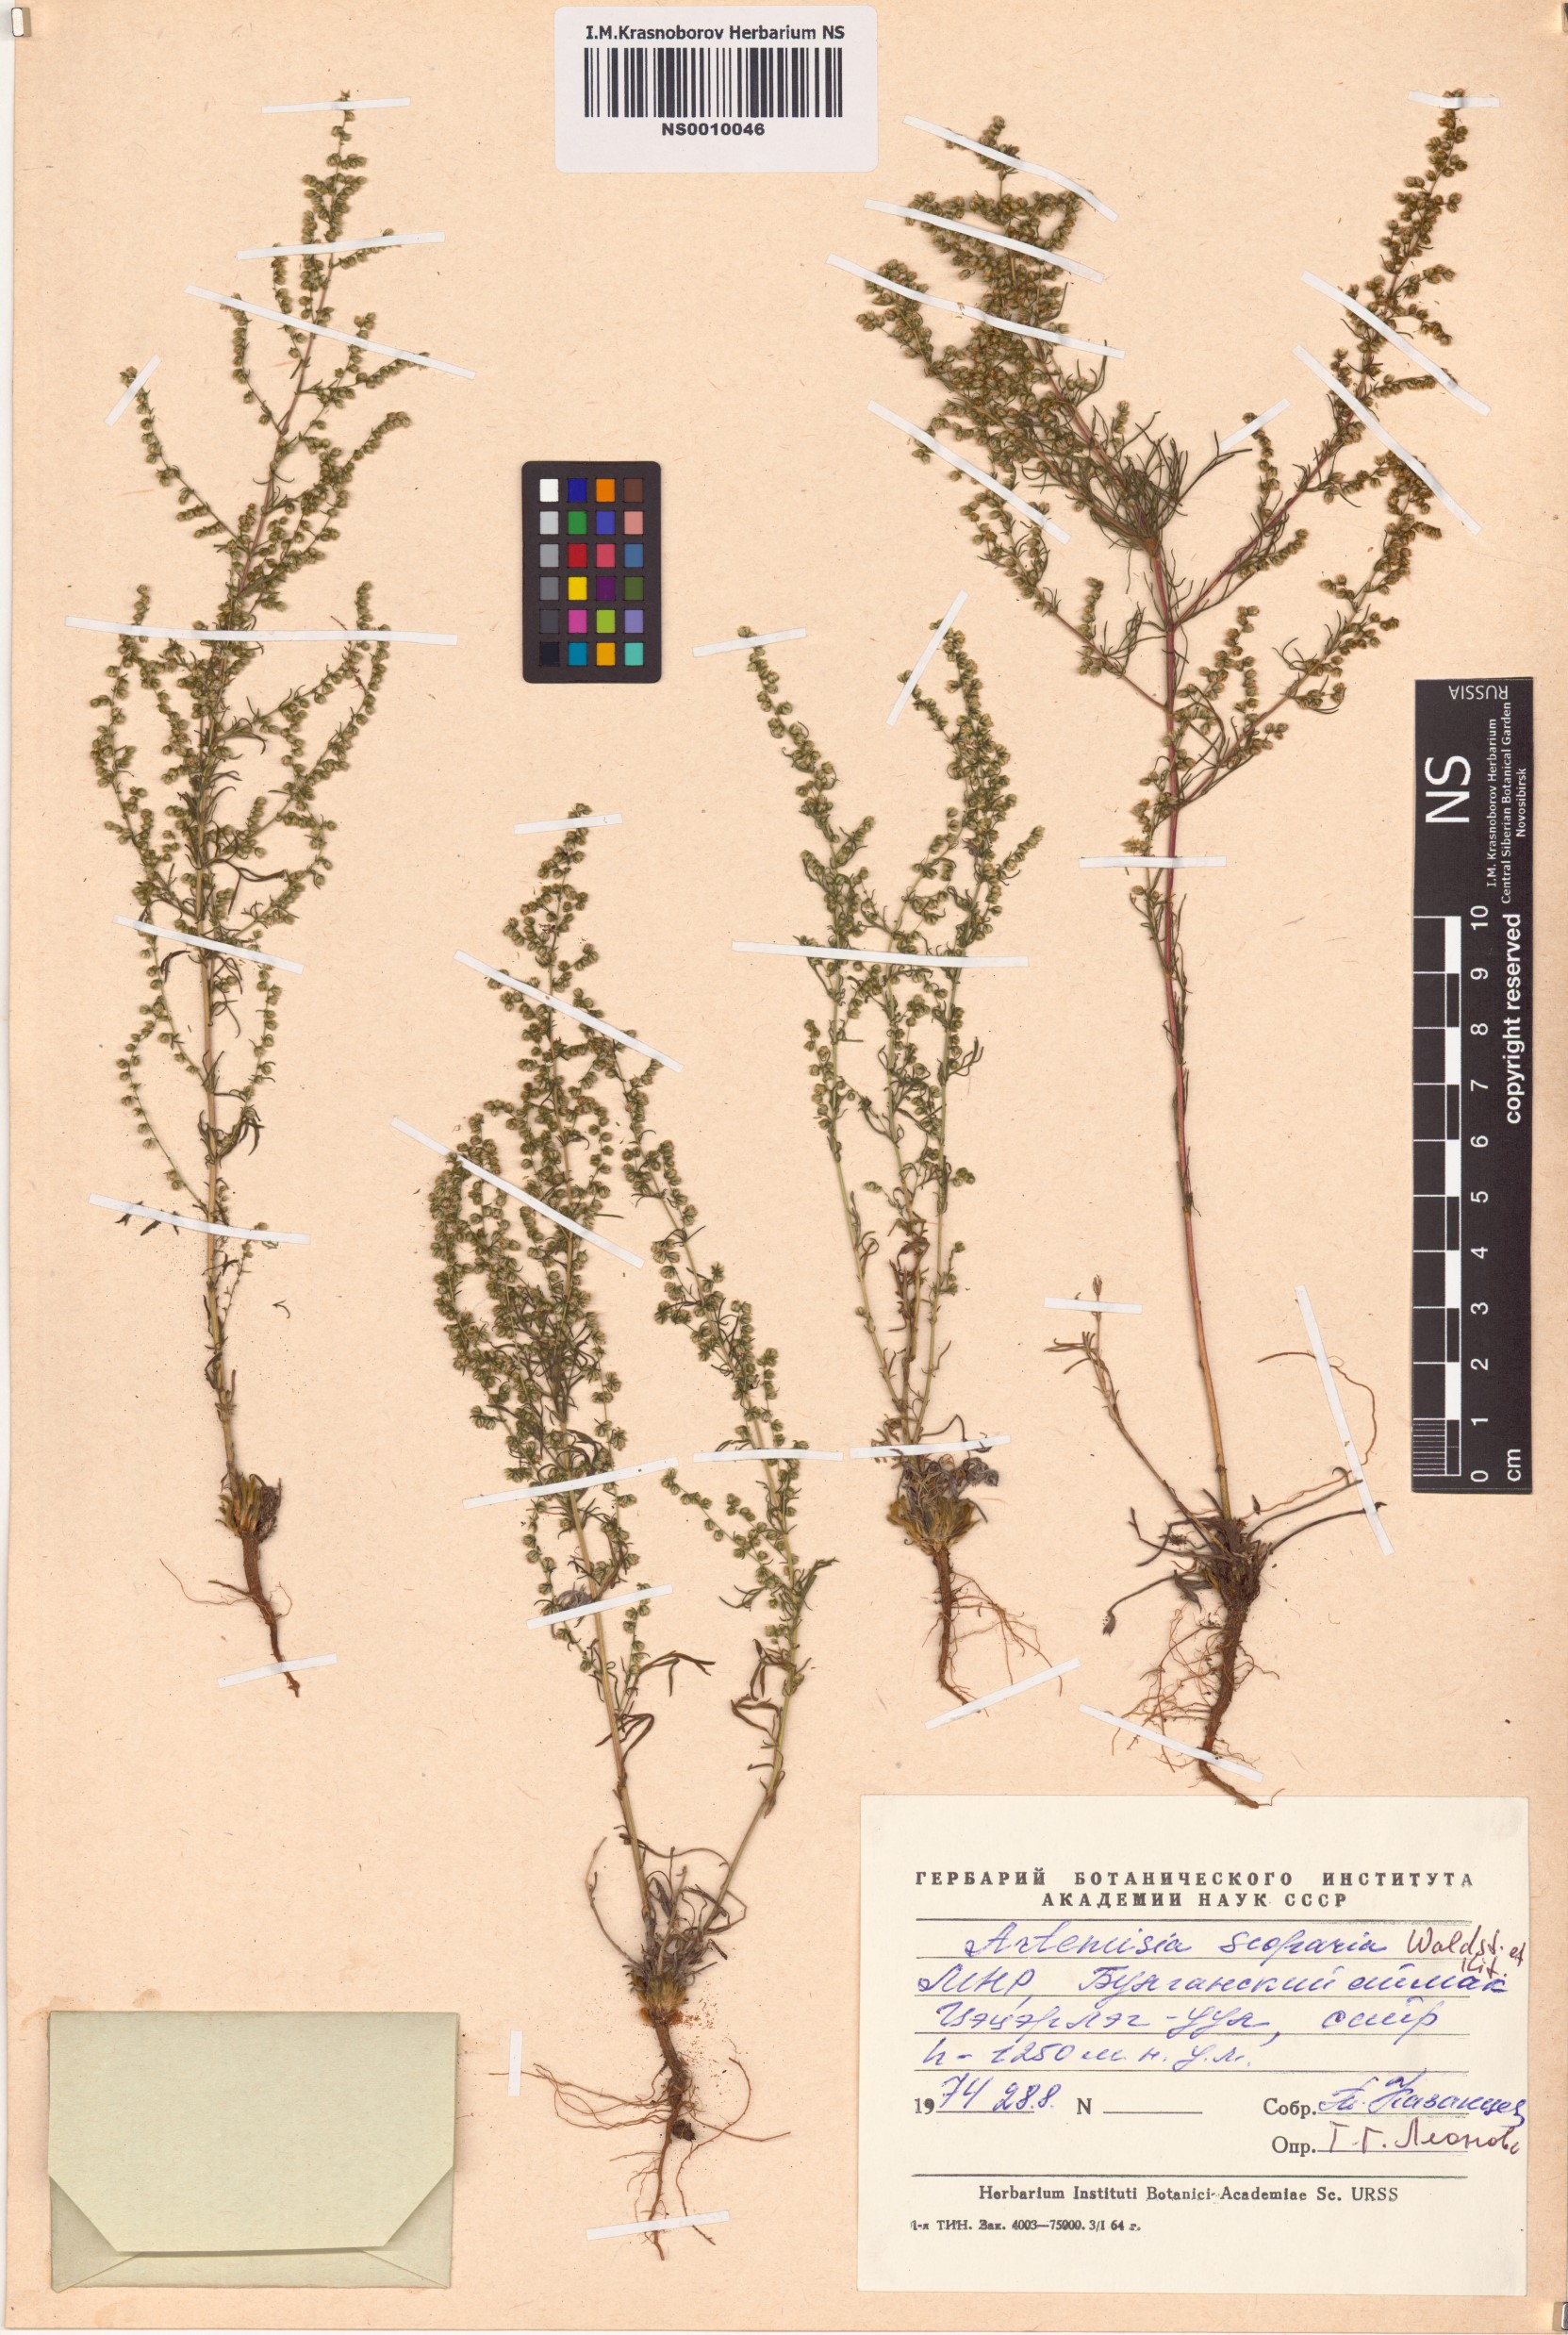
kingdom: Plantae
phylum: Tracheophyta
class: Magnoliopsida
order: Asterales
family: Asteraceae
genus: Artemisia
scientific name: Artemisia scoparia
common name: Redstem wormwood
